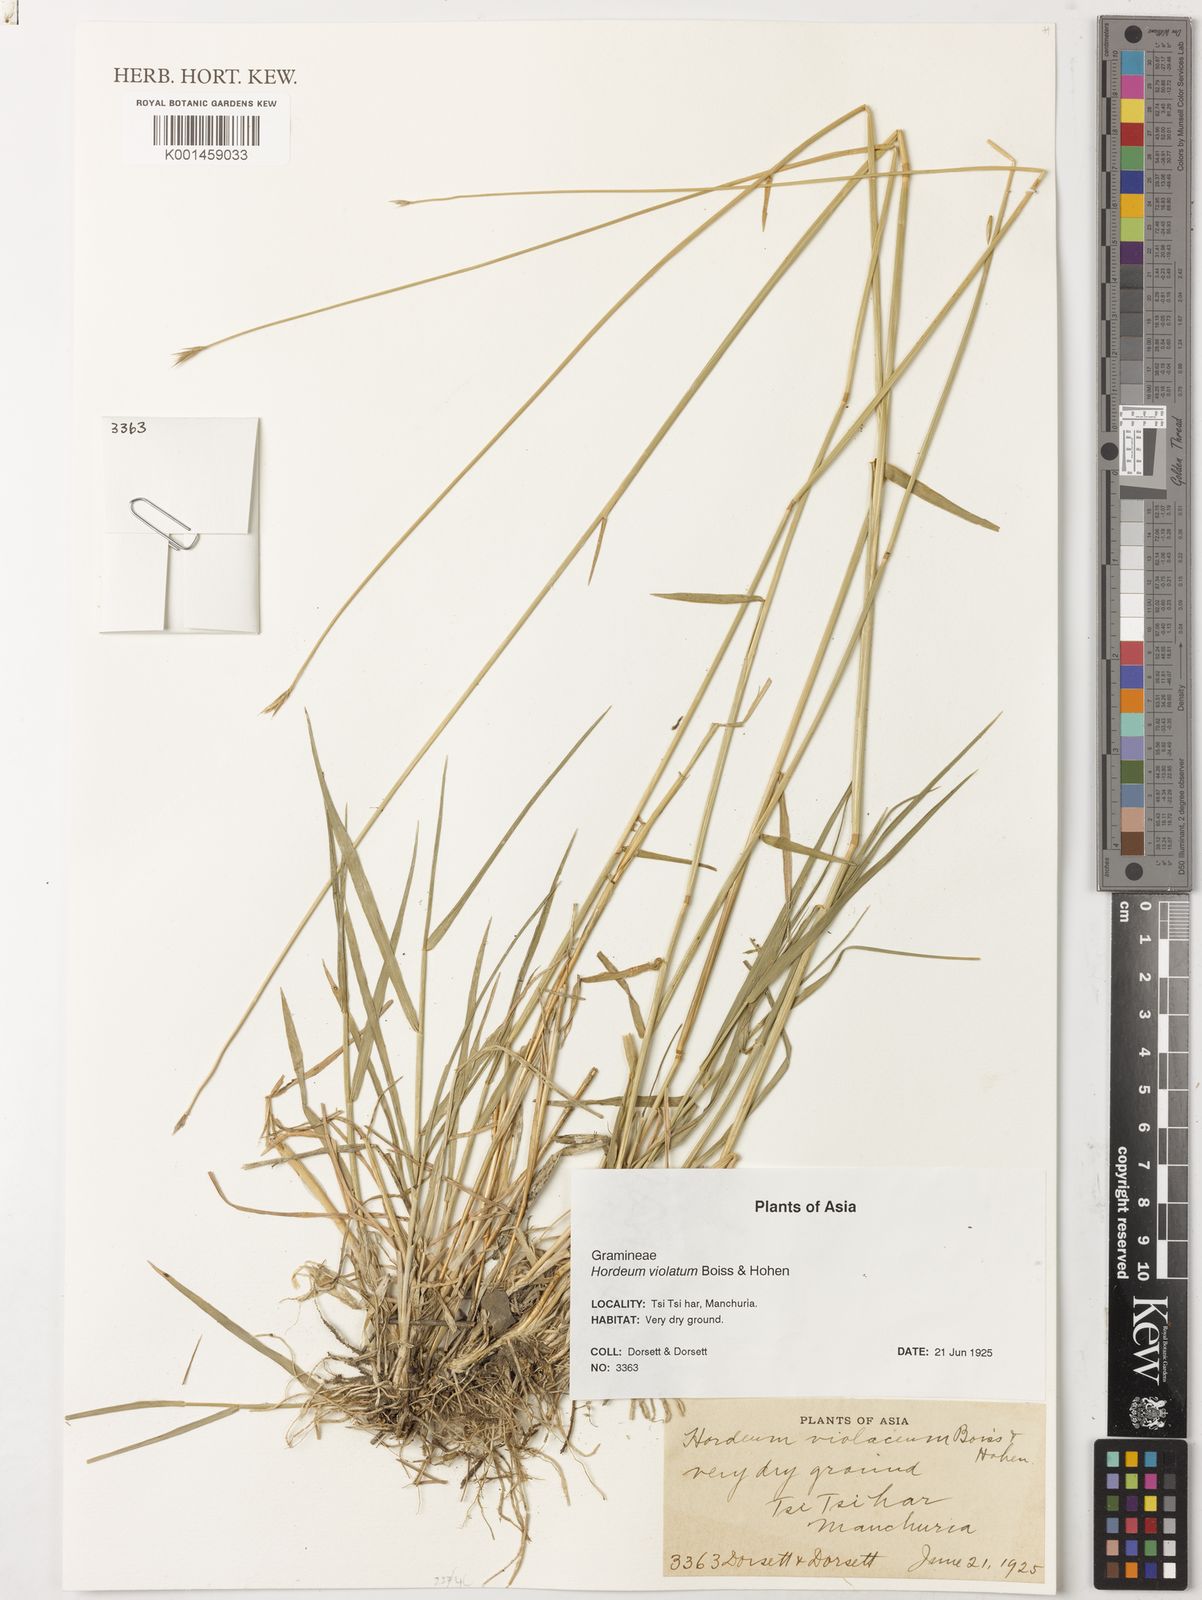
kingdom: Plantae
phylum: Tracheophyta
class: Liliopsida
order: Poales
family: Poaceae
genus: Hordeum
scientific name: Hordeum brevisubulatum
